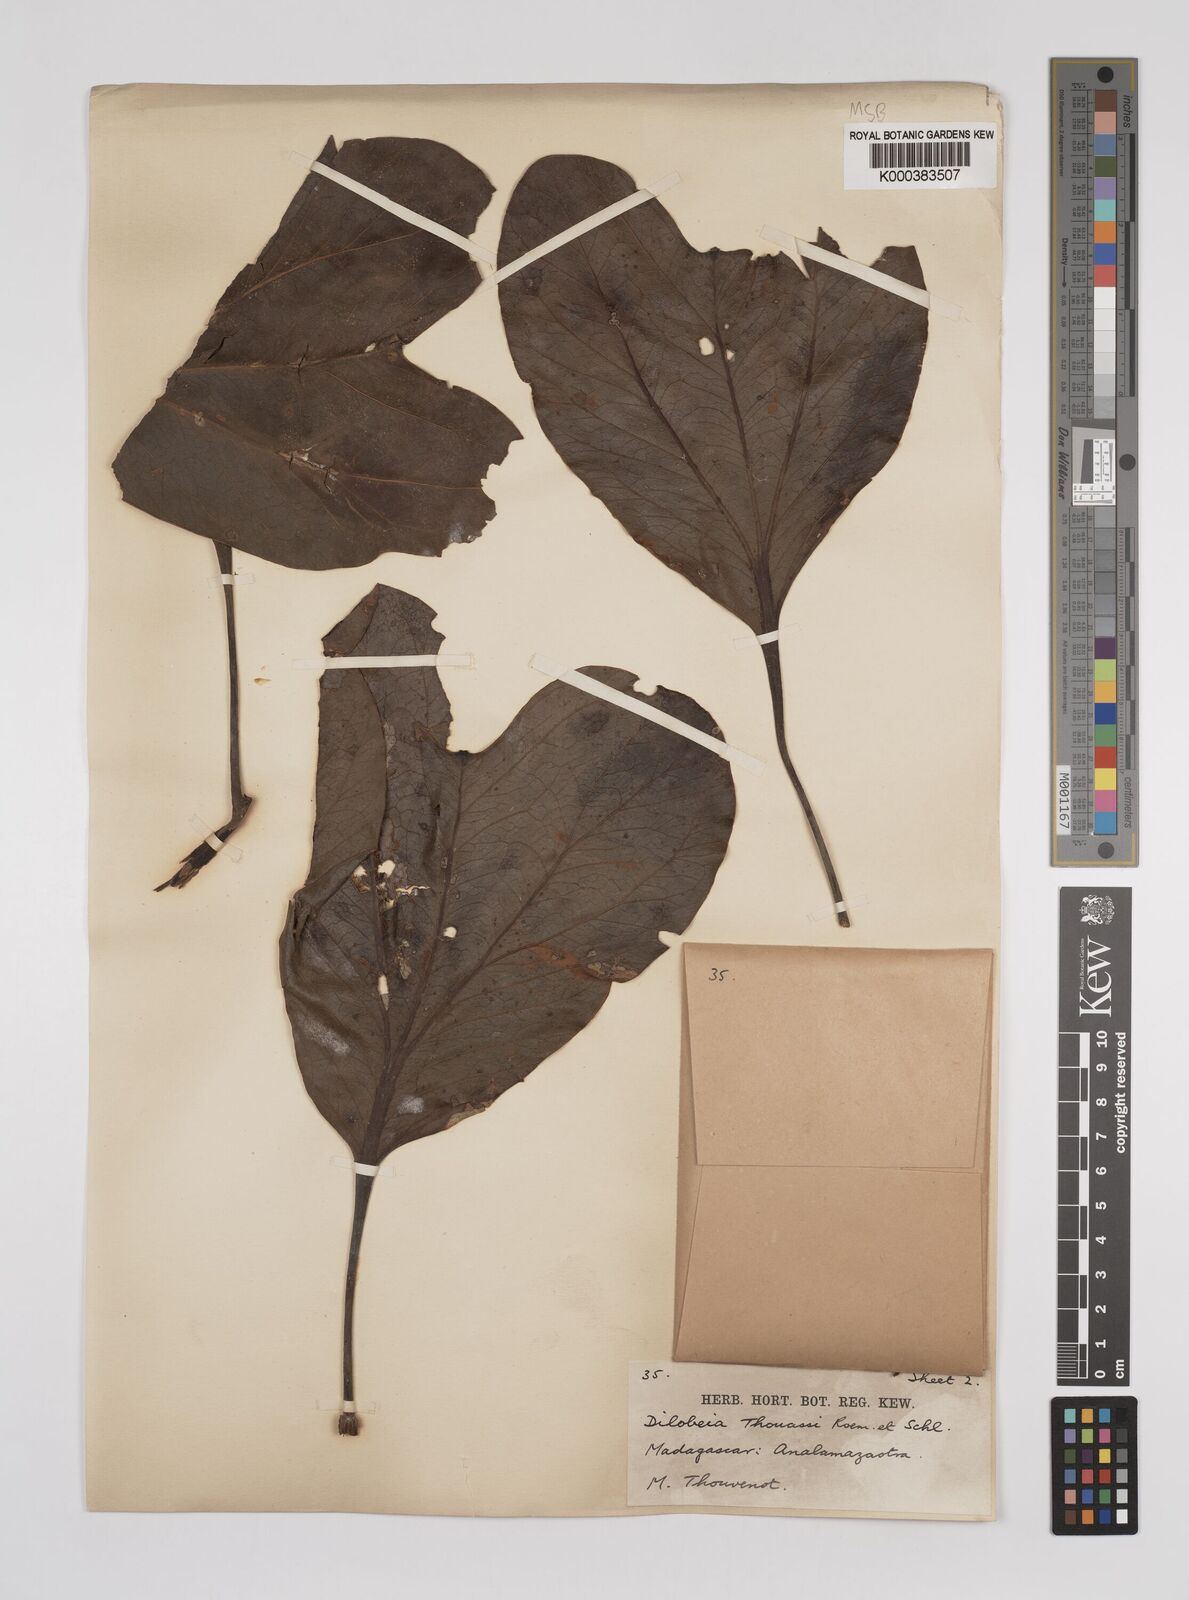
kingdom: Plantae
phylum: Tracheophyta
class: Magnoliopsida
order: Proteales
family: Proteaceae
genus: Dilobeia
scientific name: Dilobeia thouarsii
